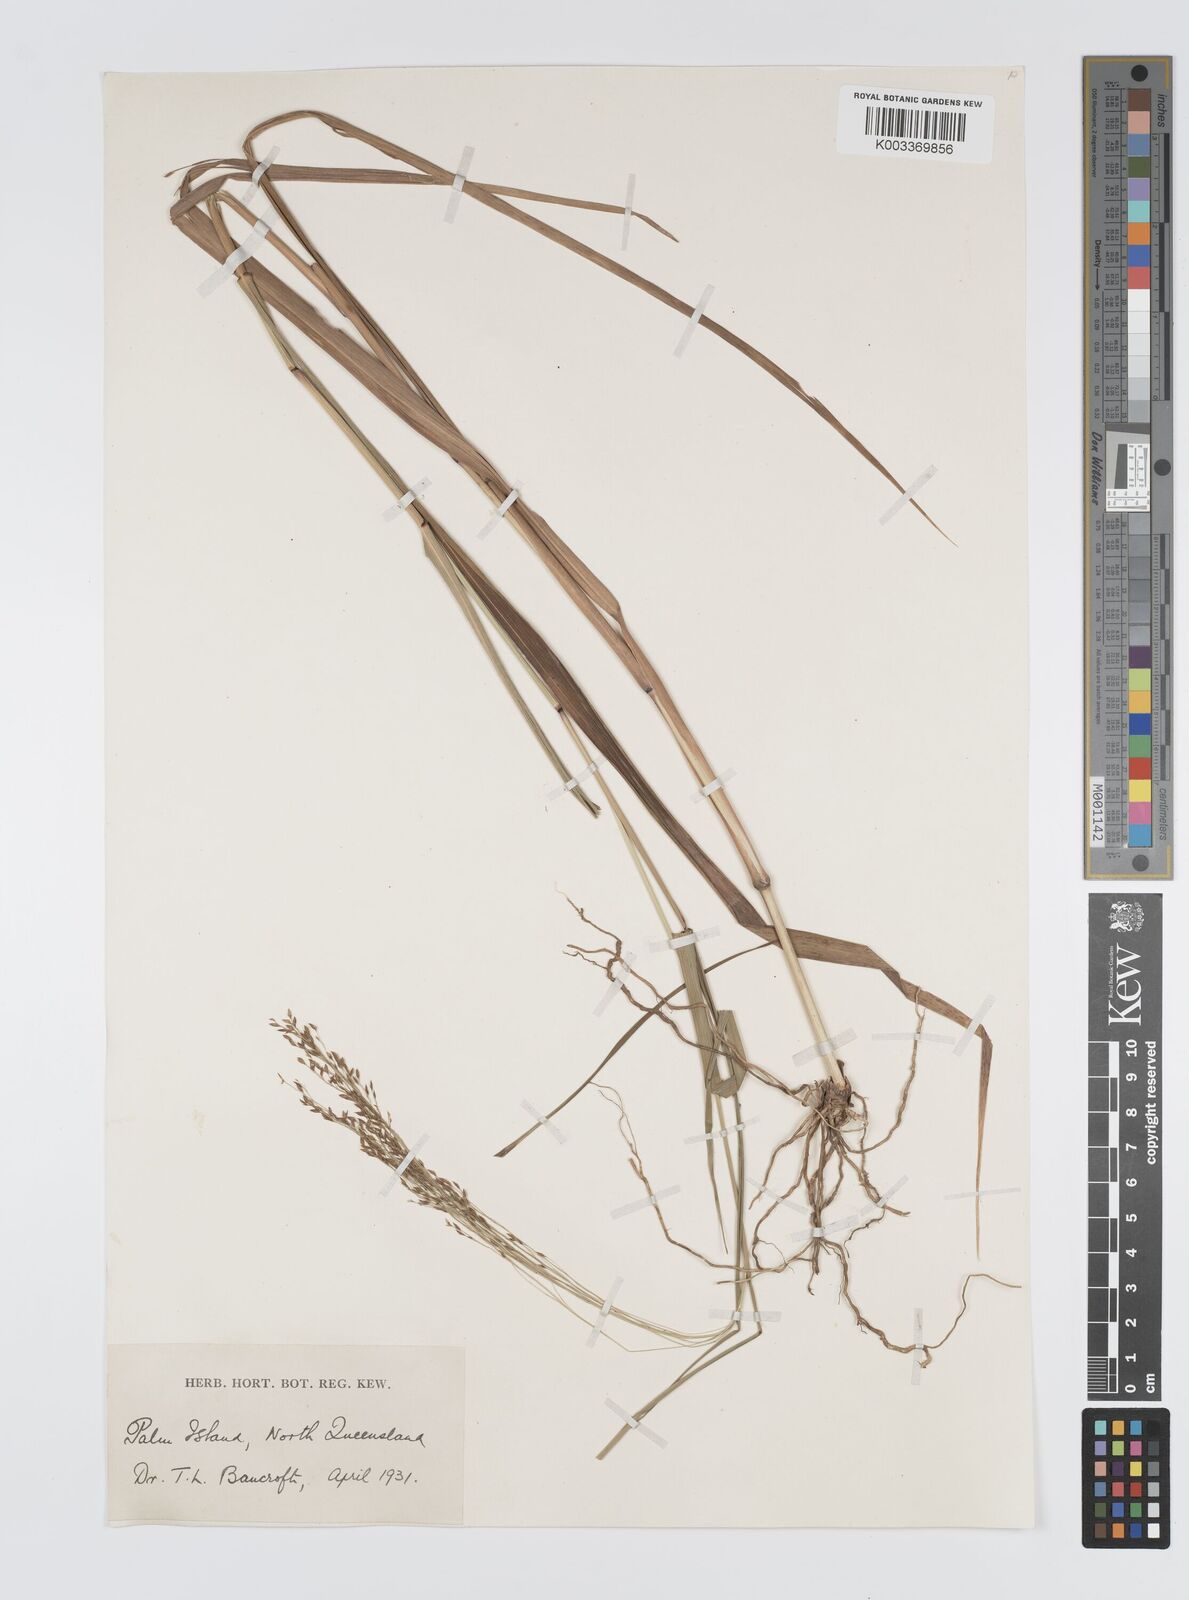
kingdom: Plantae
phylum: Tracheophyta
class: Liliopsida
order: Poales
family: Poaceae
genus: Panicum
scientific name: Panicum mitchellii
